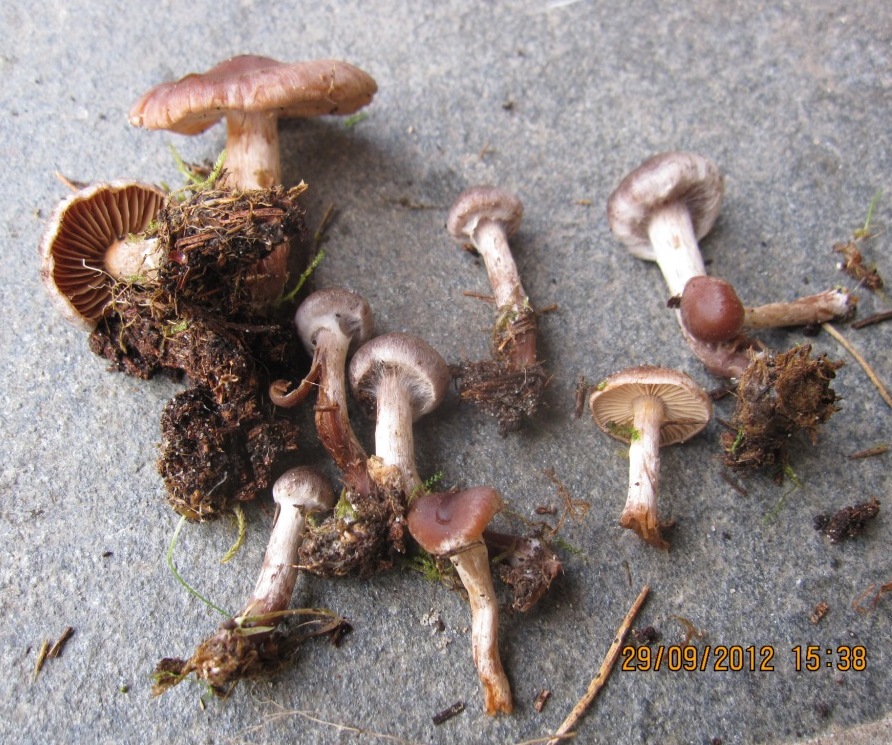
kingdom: Fungi
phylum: Basidiomycota
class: Agaricomycetes
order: Agaricales
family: Cortinariaceae
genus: Cortinarius
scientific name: Cortinarius fuscoalbus
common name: lysbladet slørhat
